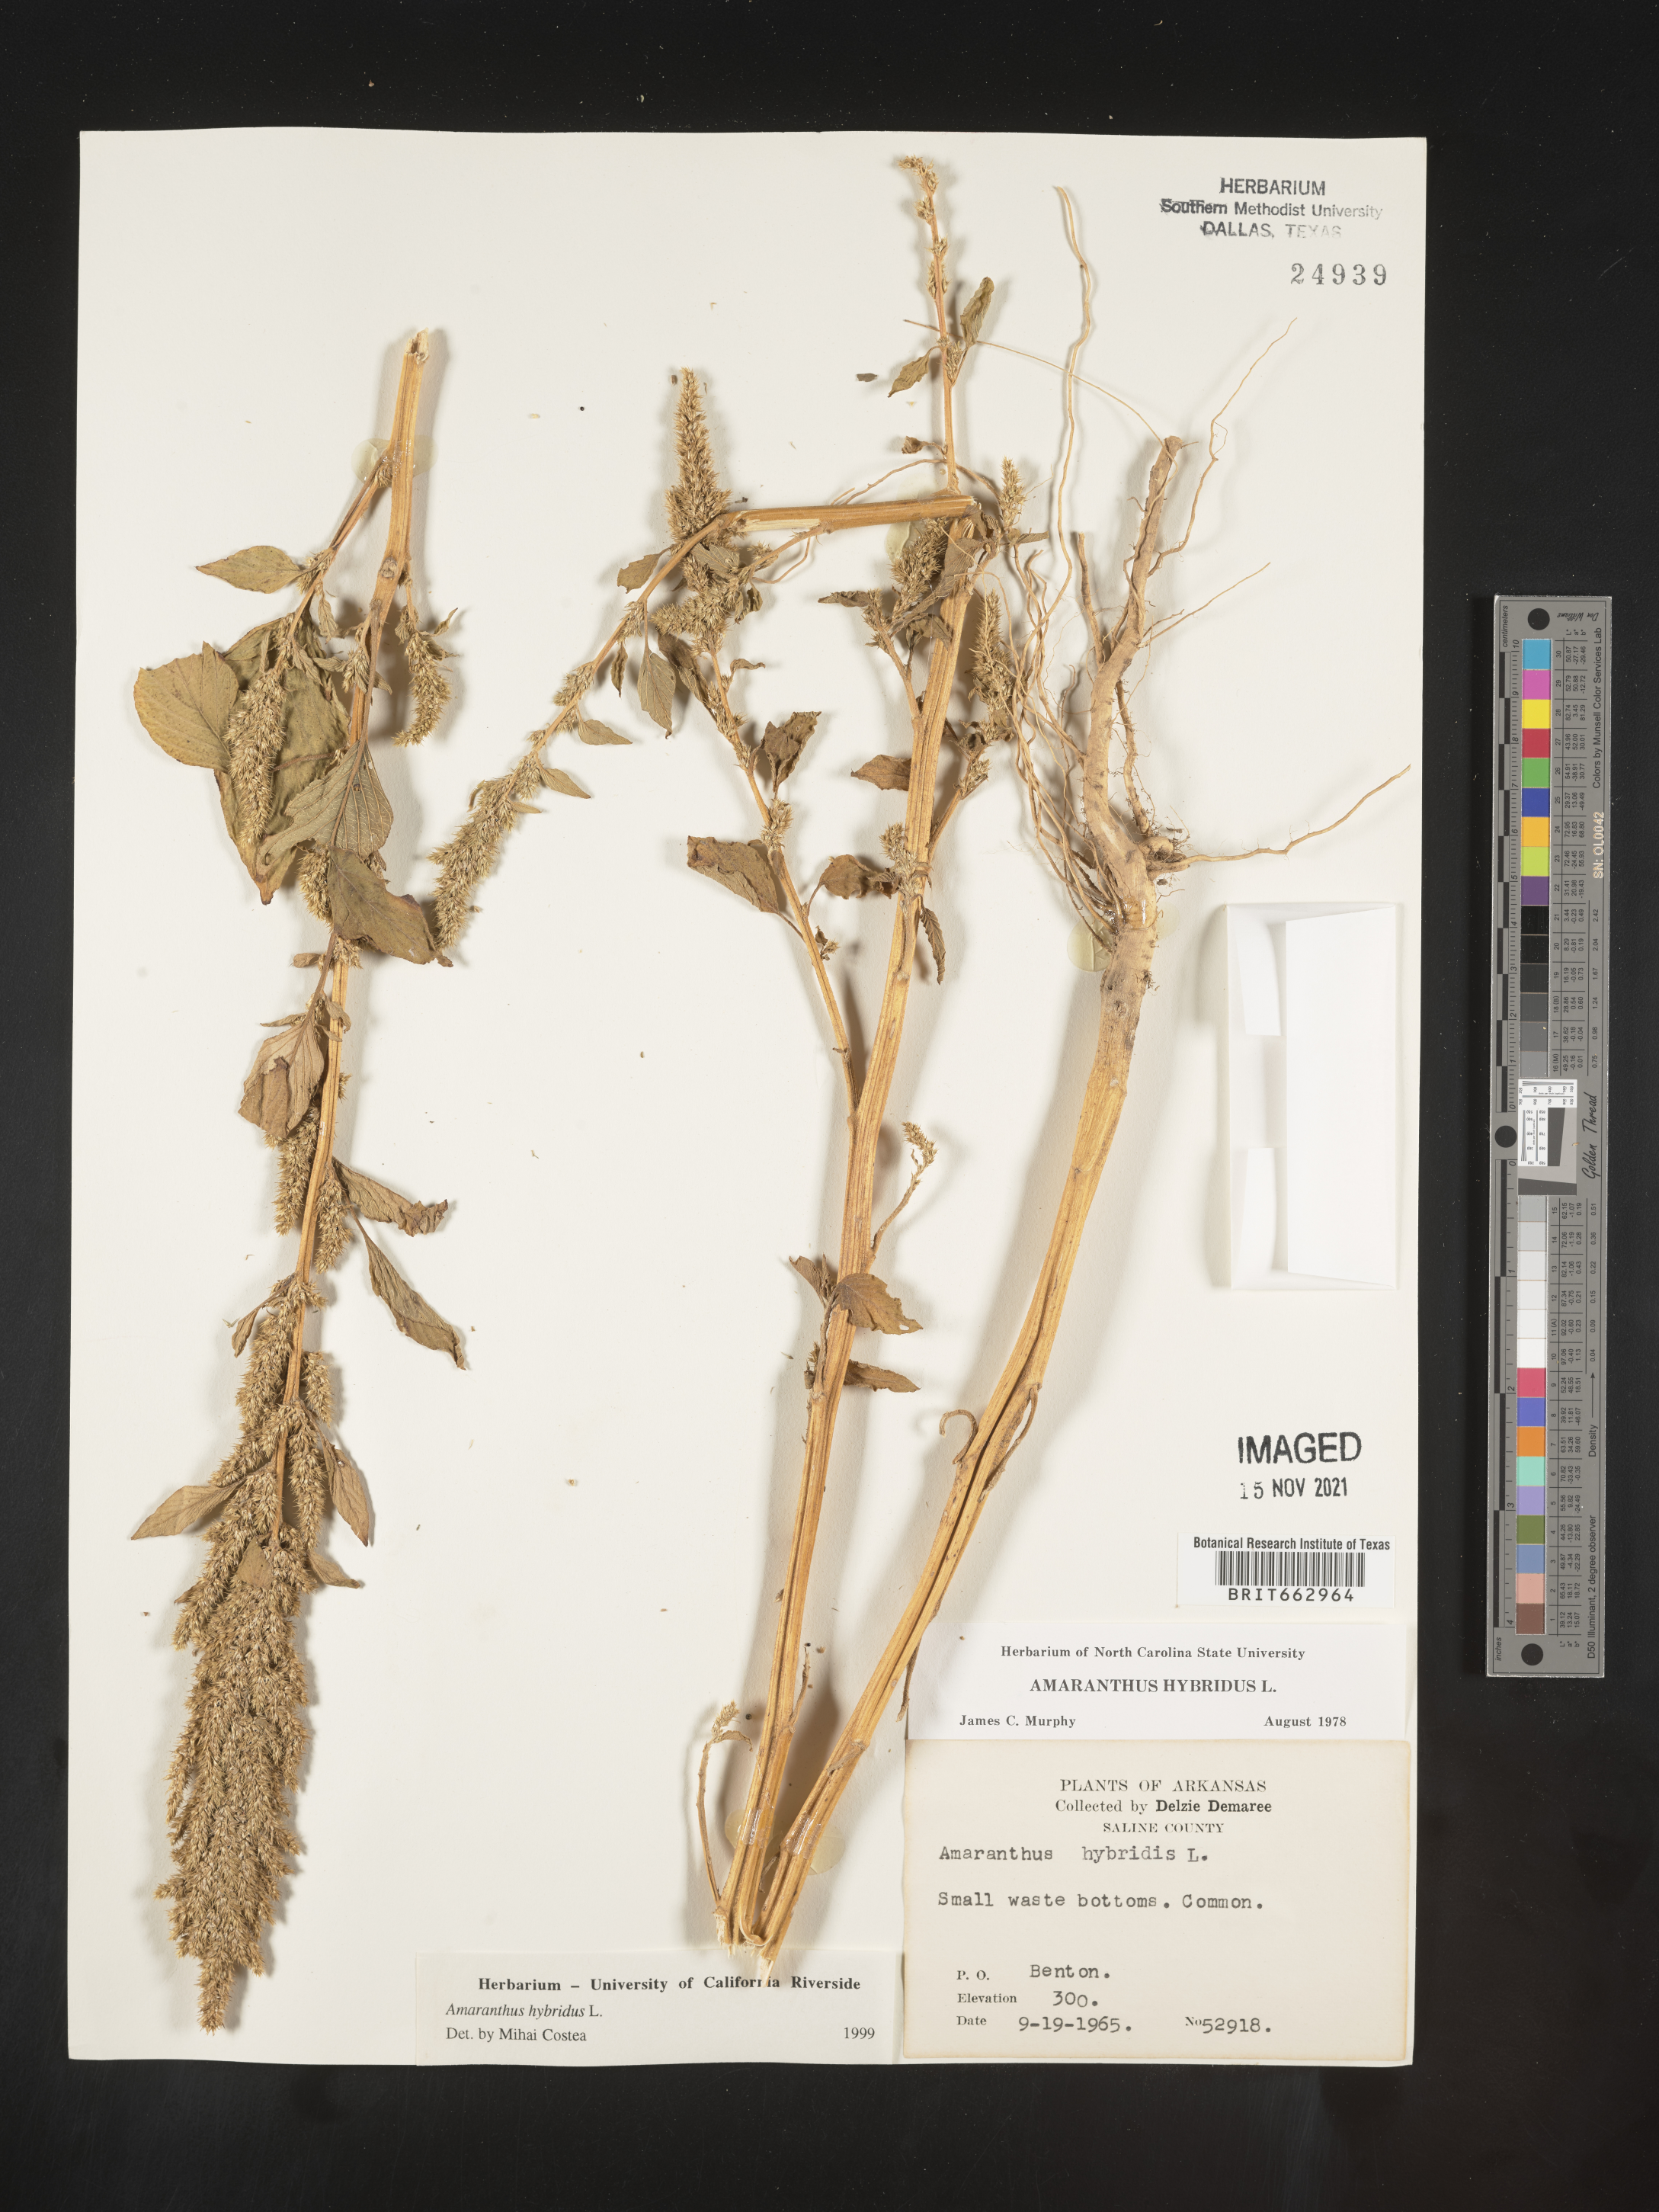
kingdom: Plantae
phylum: Tracheophyta
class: Magnoliopsida
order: Caryophyllales
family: Amaranthaceae
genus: Amaranthus
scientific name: Amaranthus hybridus
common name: Green amaranth
